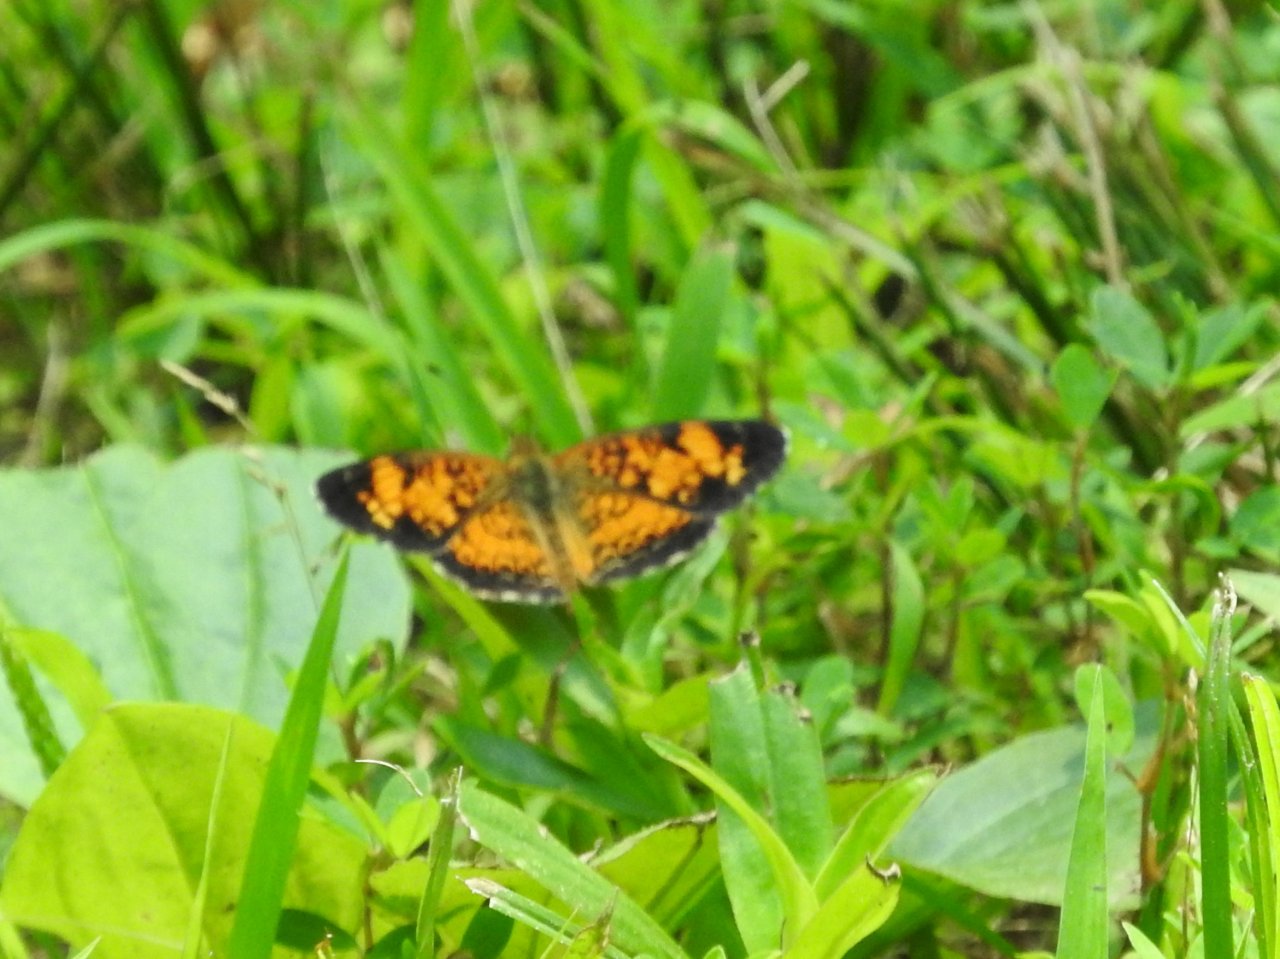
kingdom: Animalia
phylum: Arthropoda
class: Insecta
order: Lepidoptera
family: Nymphalidae
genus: Phyciodes
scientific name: Phyciodes tharos
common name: Pearl Crescent
